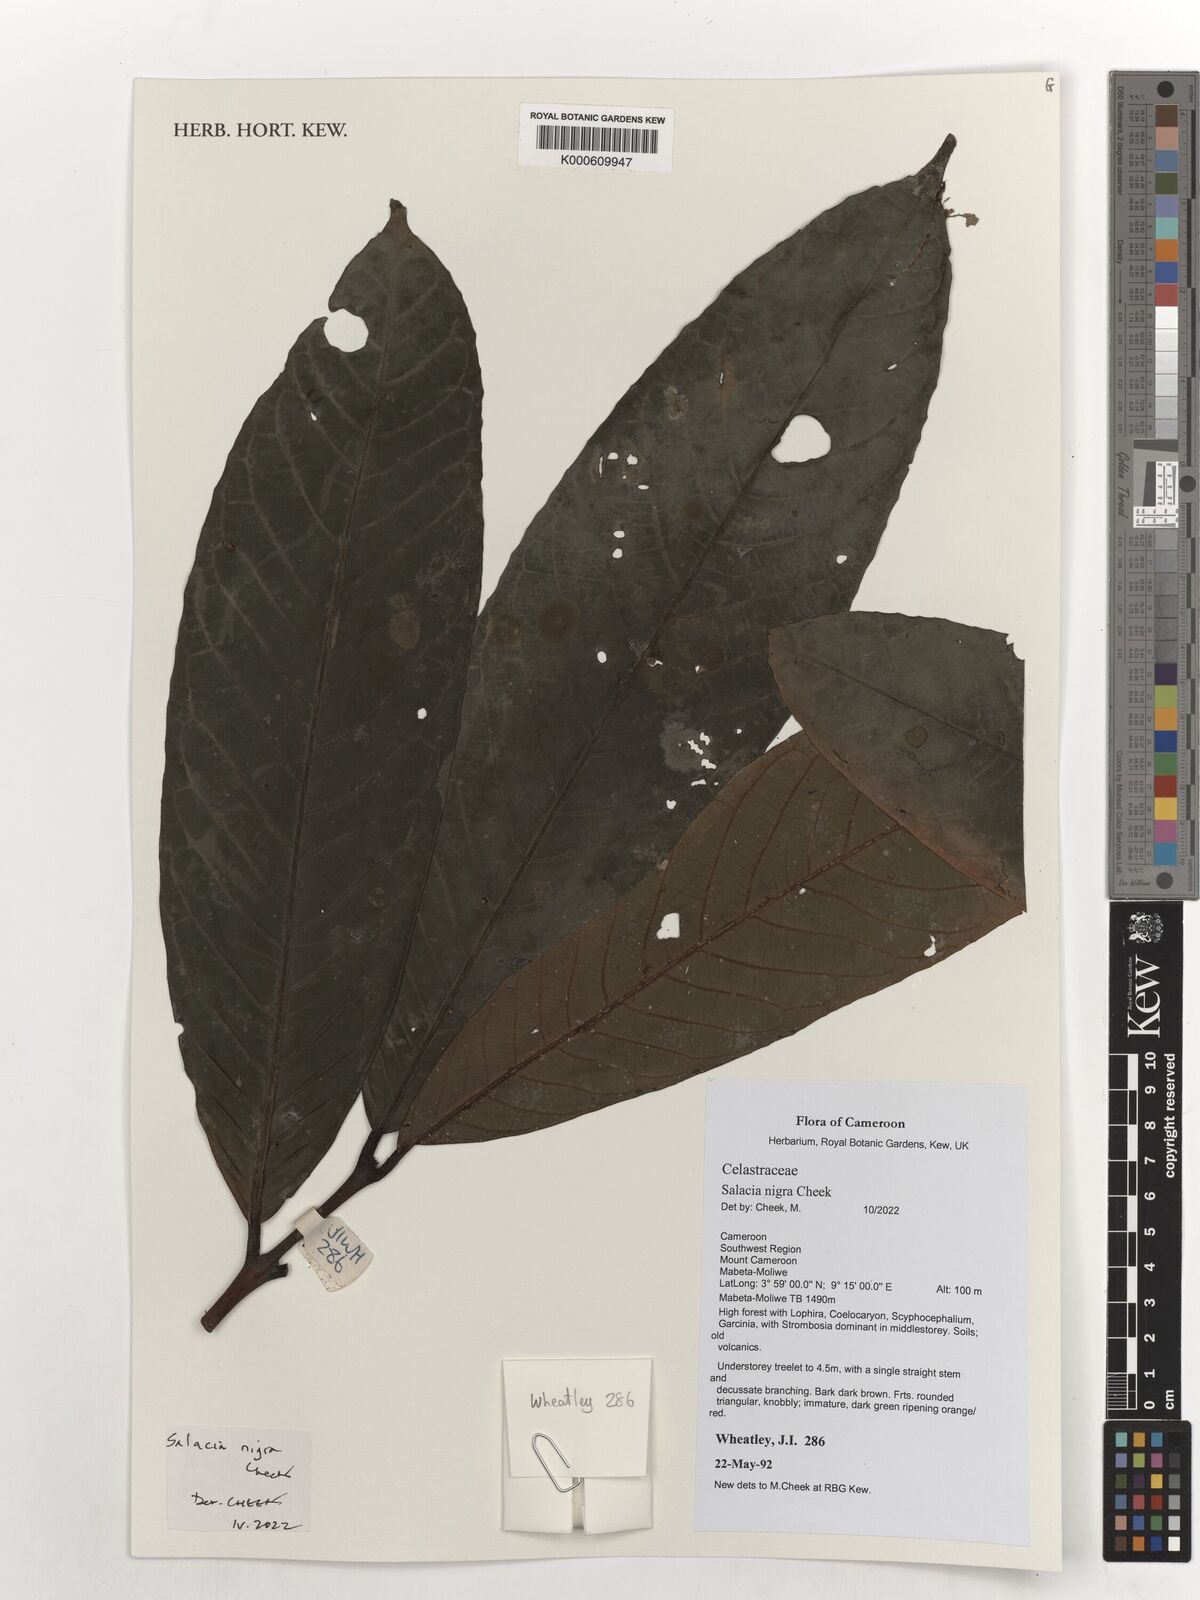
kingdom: Plantae
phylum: Tracheophyta
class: Magnoliopsida
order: Celastrales
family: Celastraceae
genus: Salacia
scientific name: Salacia nigra
